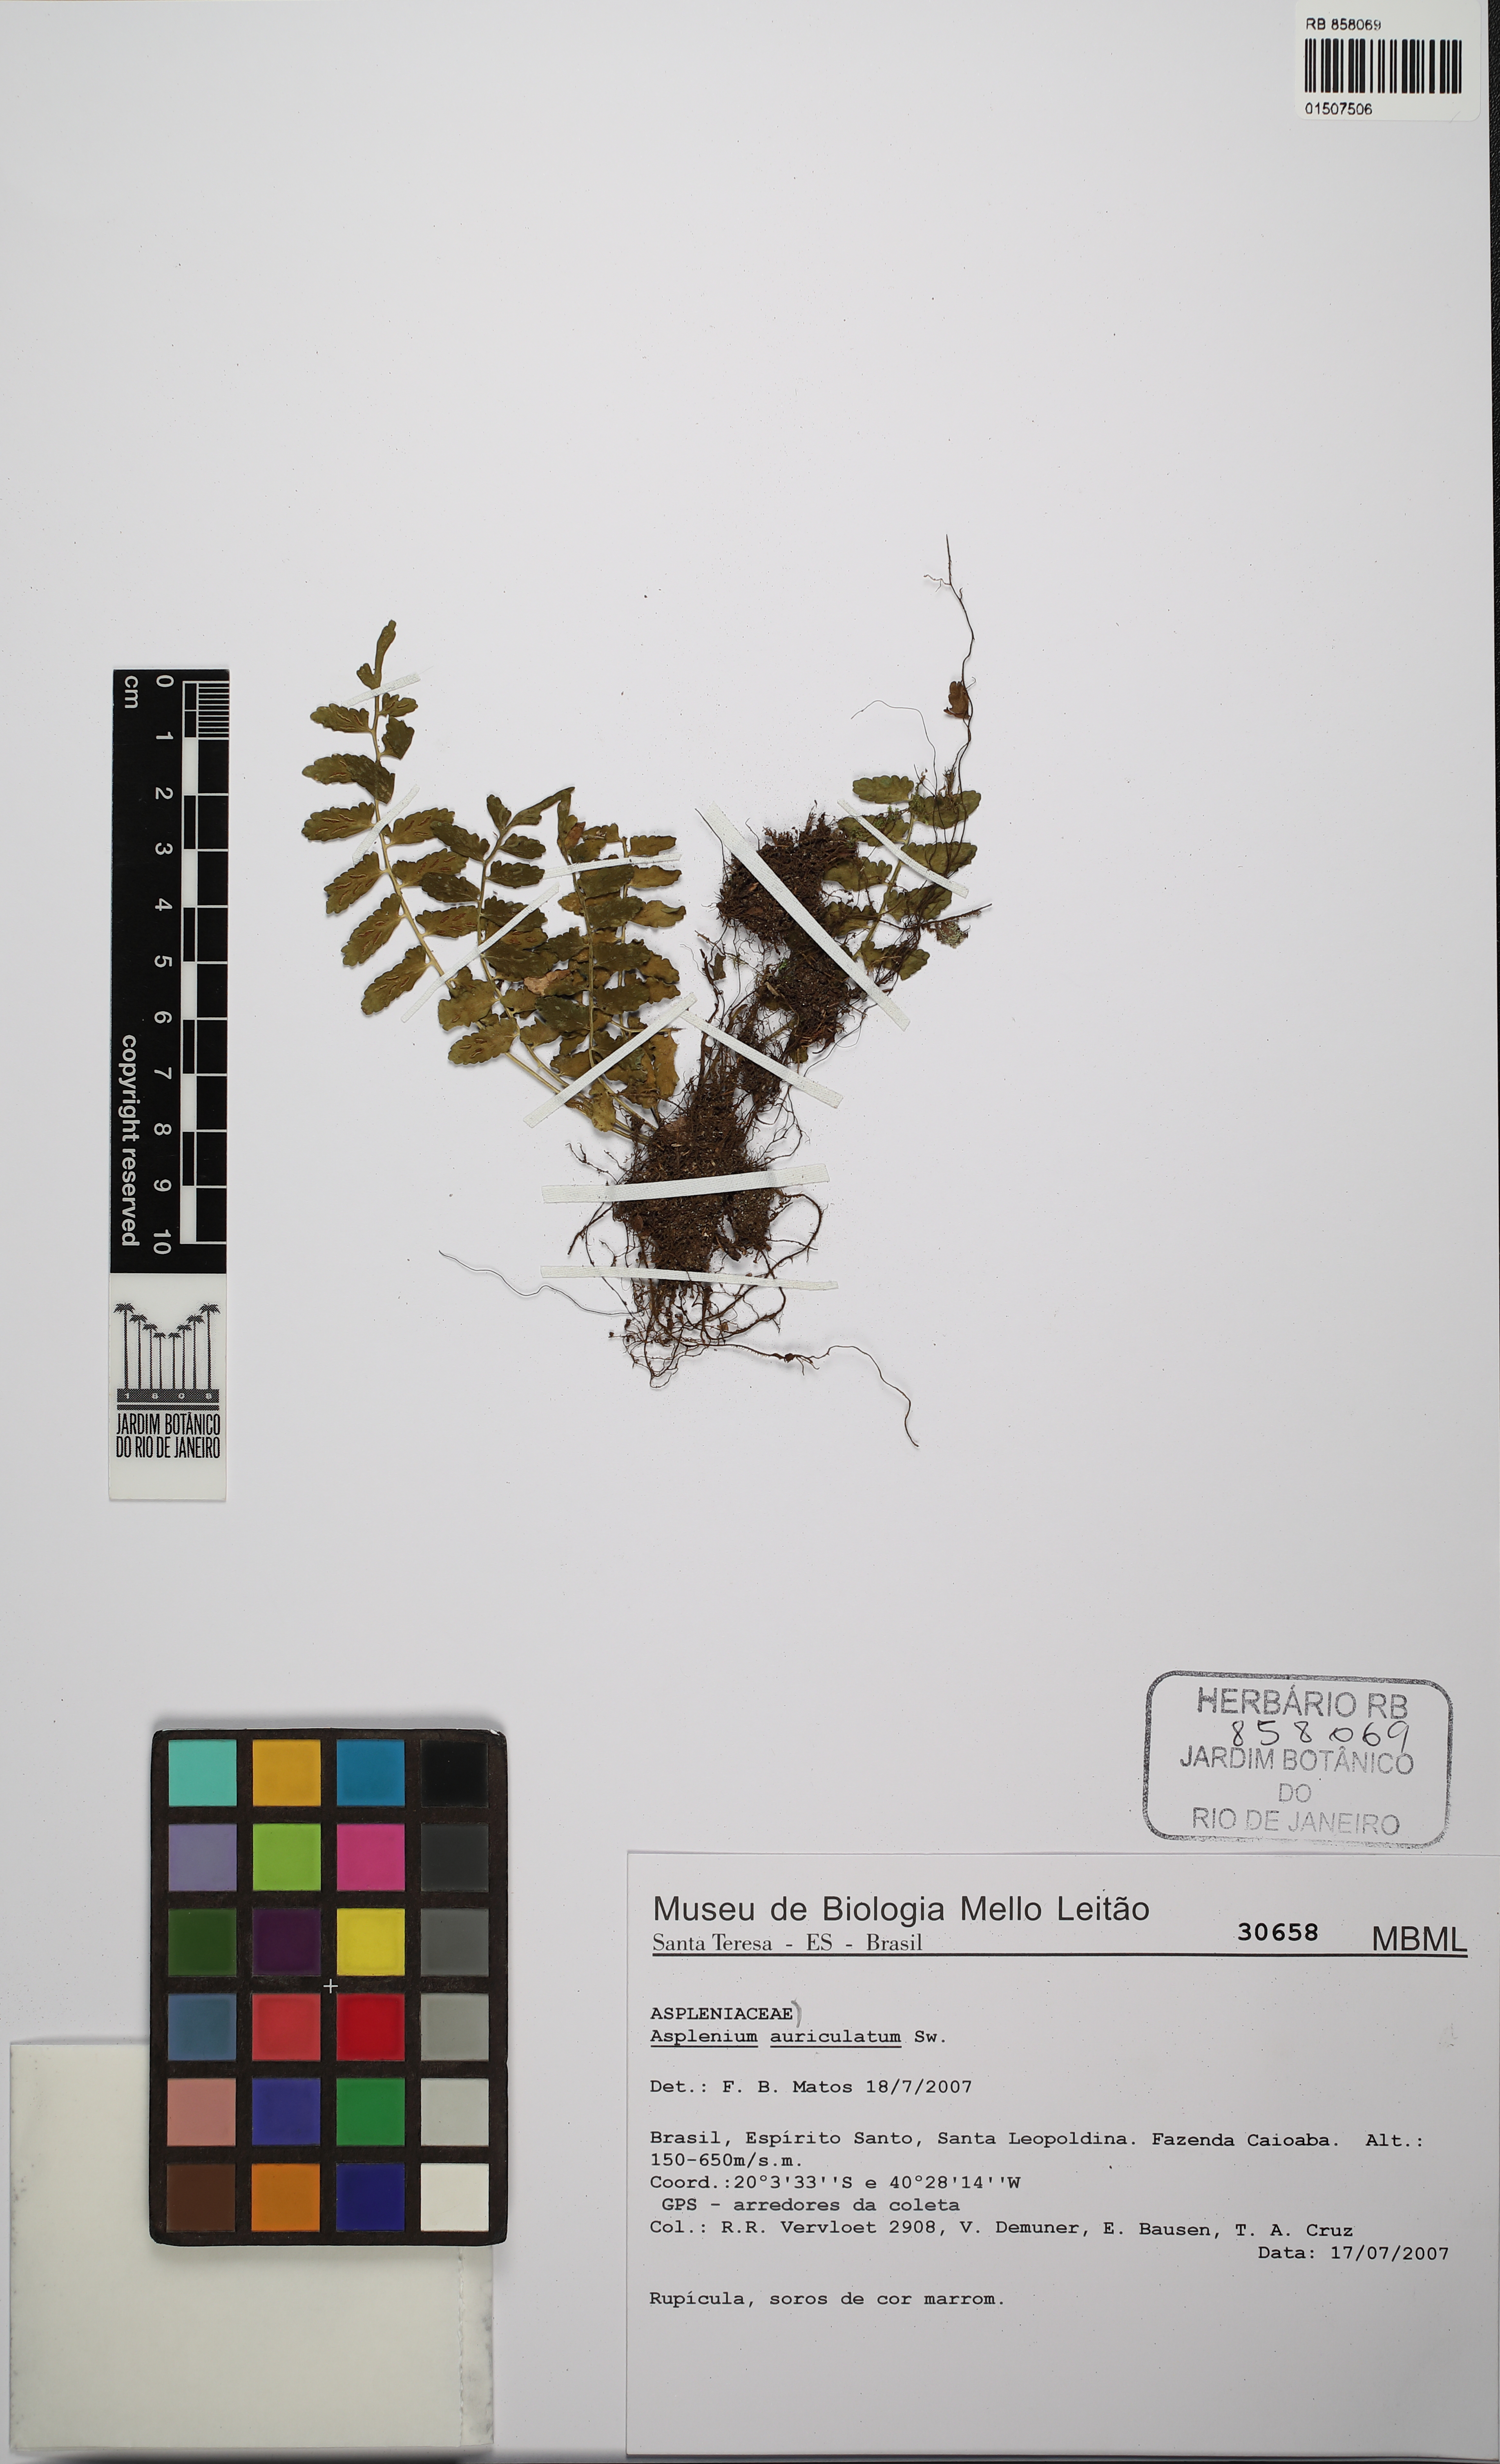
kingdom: Plantae
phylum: Tracheophyta
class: Polypodiopsida
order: Polypodiales
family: Aspleniaceae
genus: Asplenium
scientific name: Asplenium auriculatum
